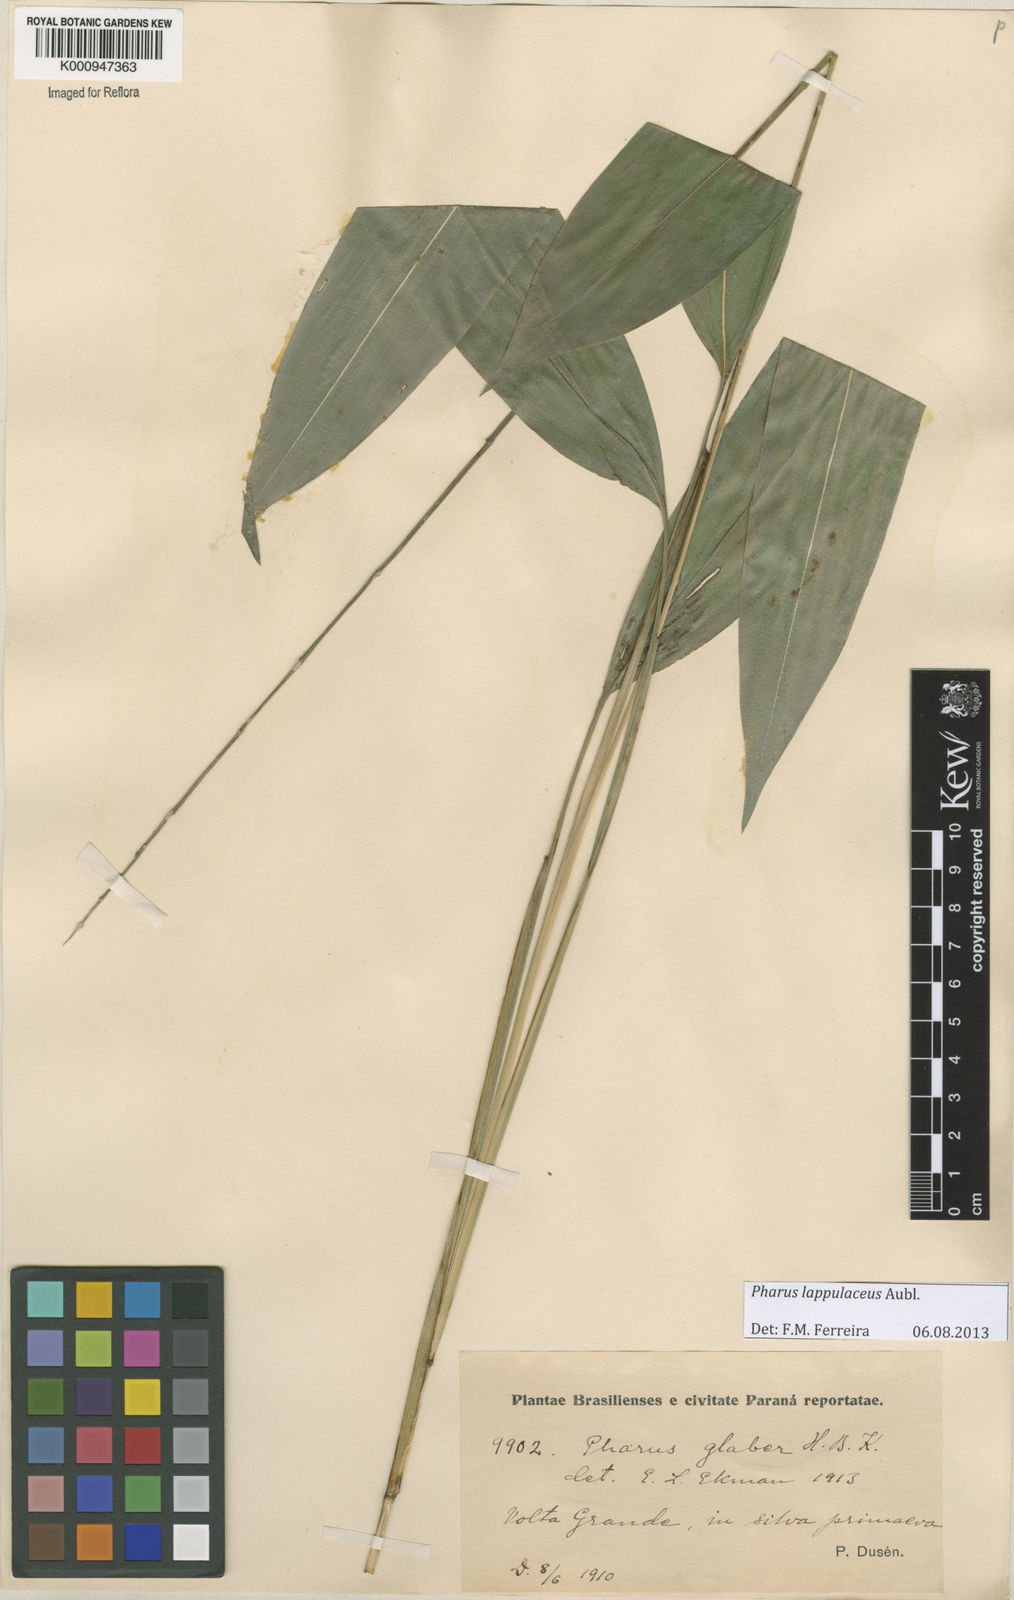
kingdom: Plantae
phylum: Tracheophyta
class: Liliopsida
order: Poales
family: Poaceae
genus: Pharus
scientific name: Pharus lappulaceus
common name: Creeping leafstalk grass
